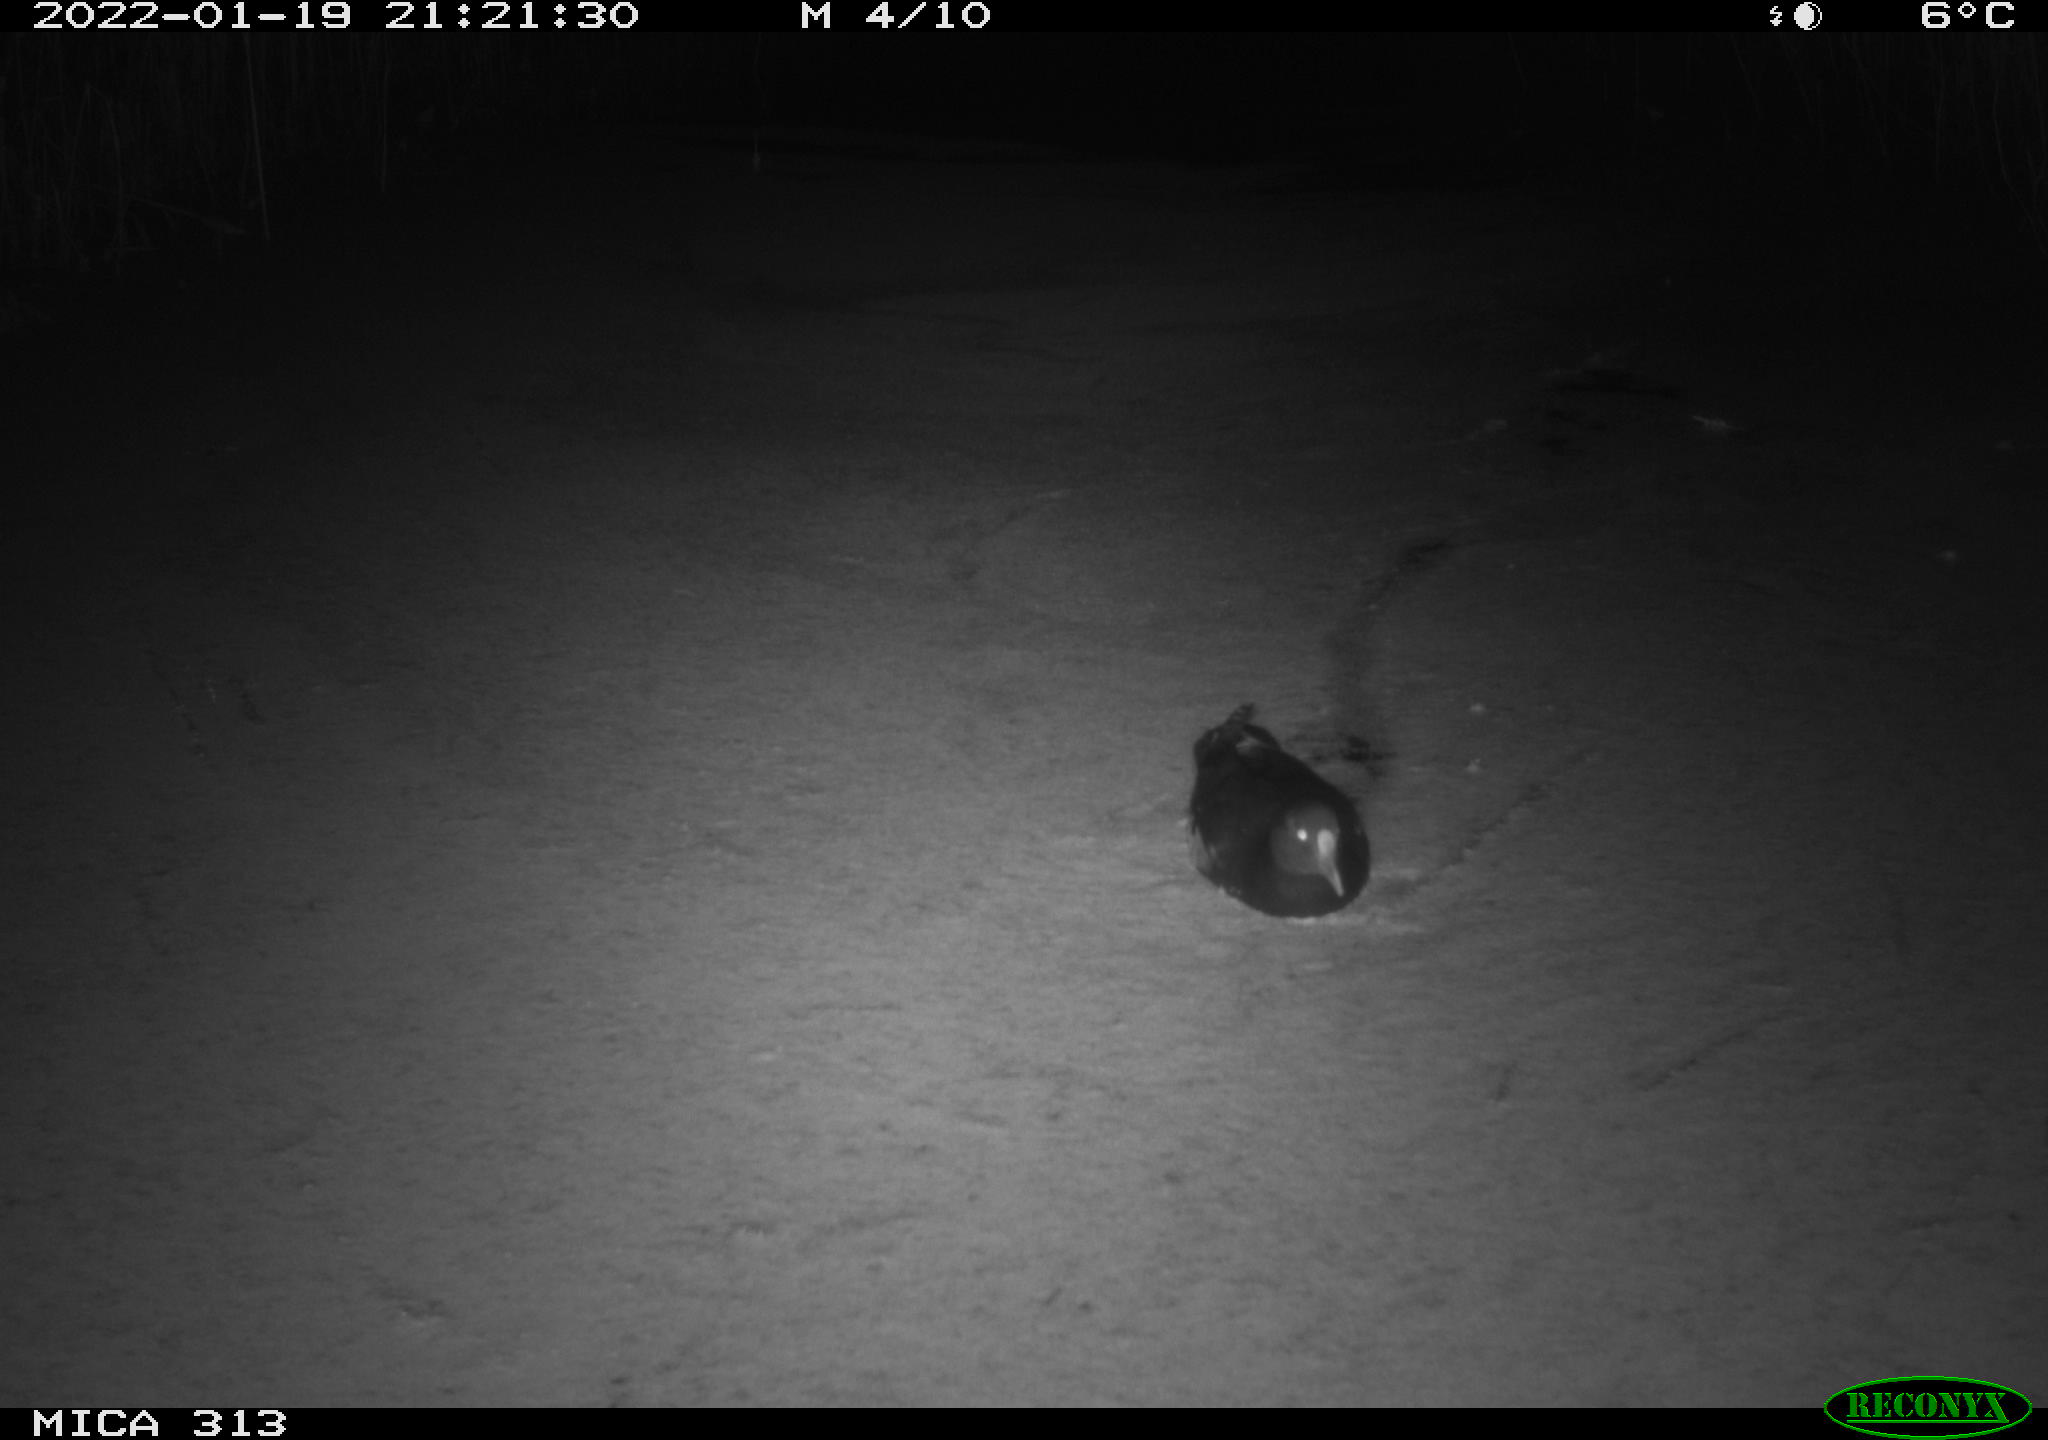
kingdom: Animalia
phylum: Chordata
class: Aves
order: Gruiformes
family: Rallidae
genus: Fulica
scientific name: Fulica atra
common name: Eurasian coot
